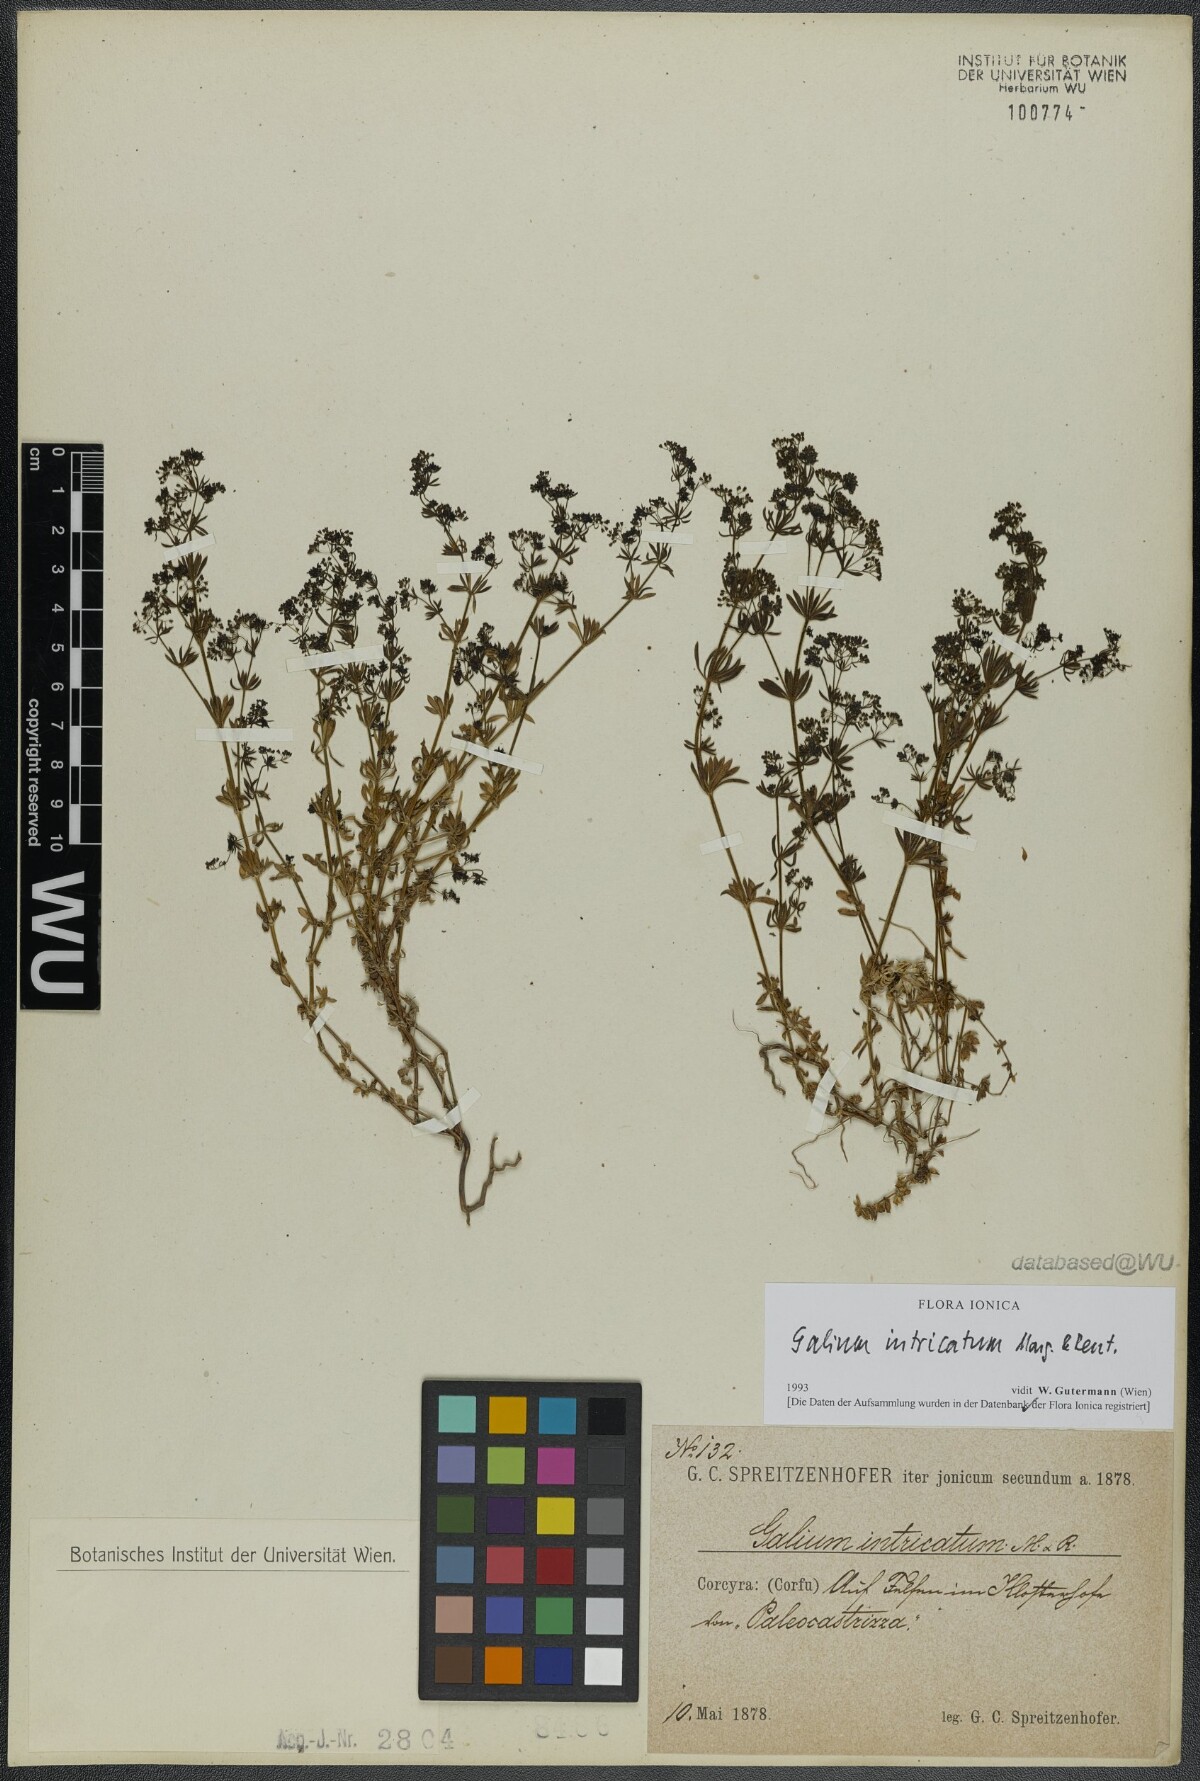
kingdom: Plantae
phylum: Tracheophyta
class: Magnoliopsida
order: Gentianales
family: Rubiaceae
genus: Galium
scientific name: Galium intricatum
